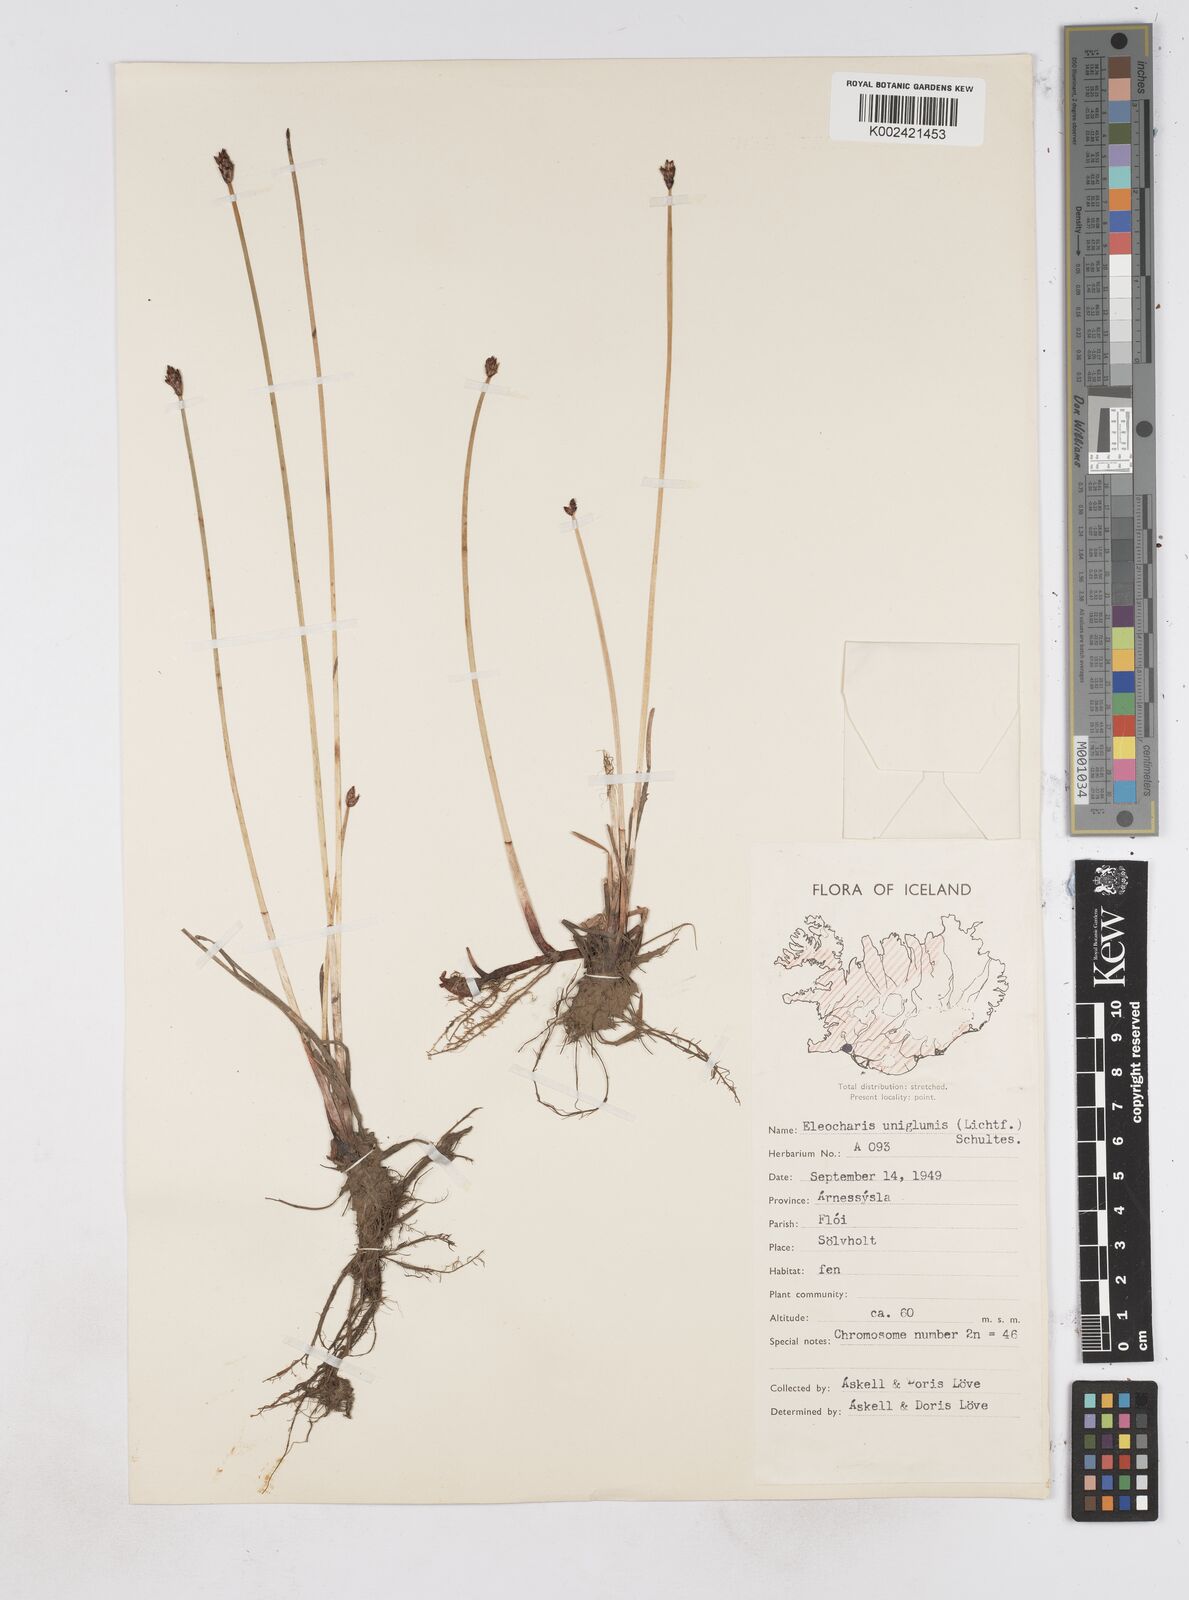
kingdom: Plantae
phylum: Tracheophyta
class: Liliopsida
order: Poales
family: Cyperaceae
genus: Eleocharis
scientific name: Eleocharis uniglumis
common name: Slender spike-rush
